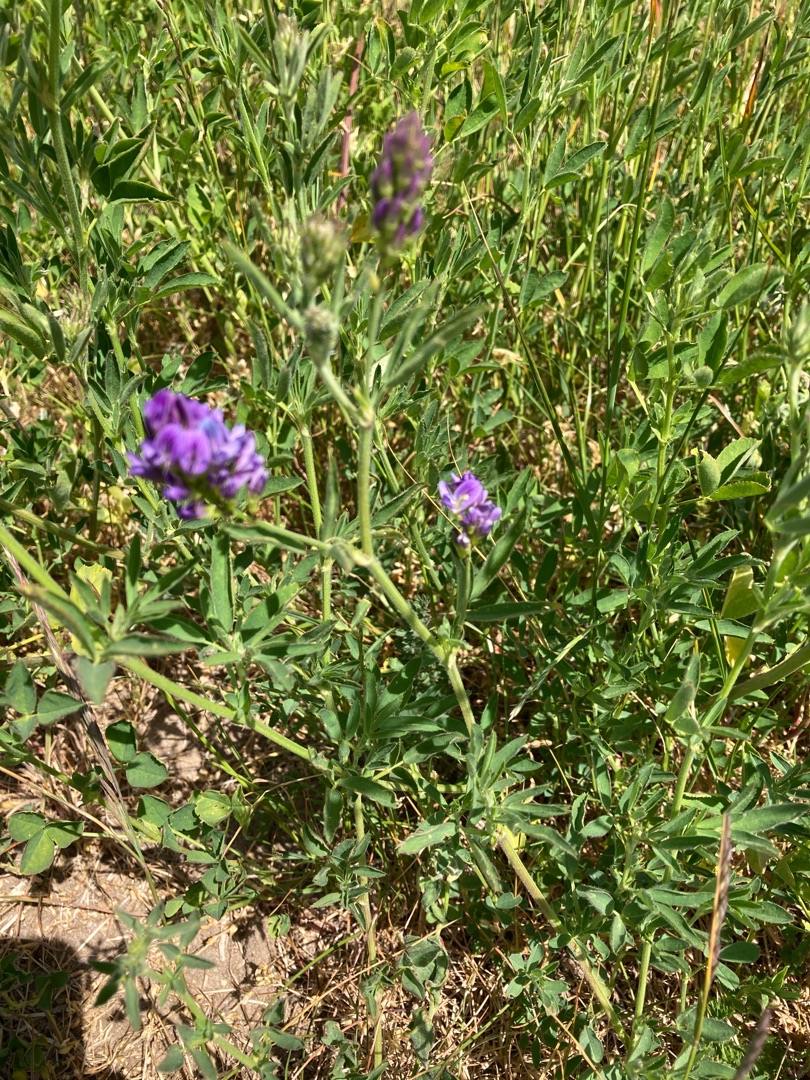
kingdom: Plantae
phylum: Tracheophyta
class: Magnoliopsida
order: Fabales
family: Fabaceae
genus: Medicago
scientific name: Medicago sativa
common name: Lucerne
